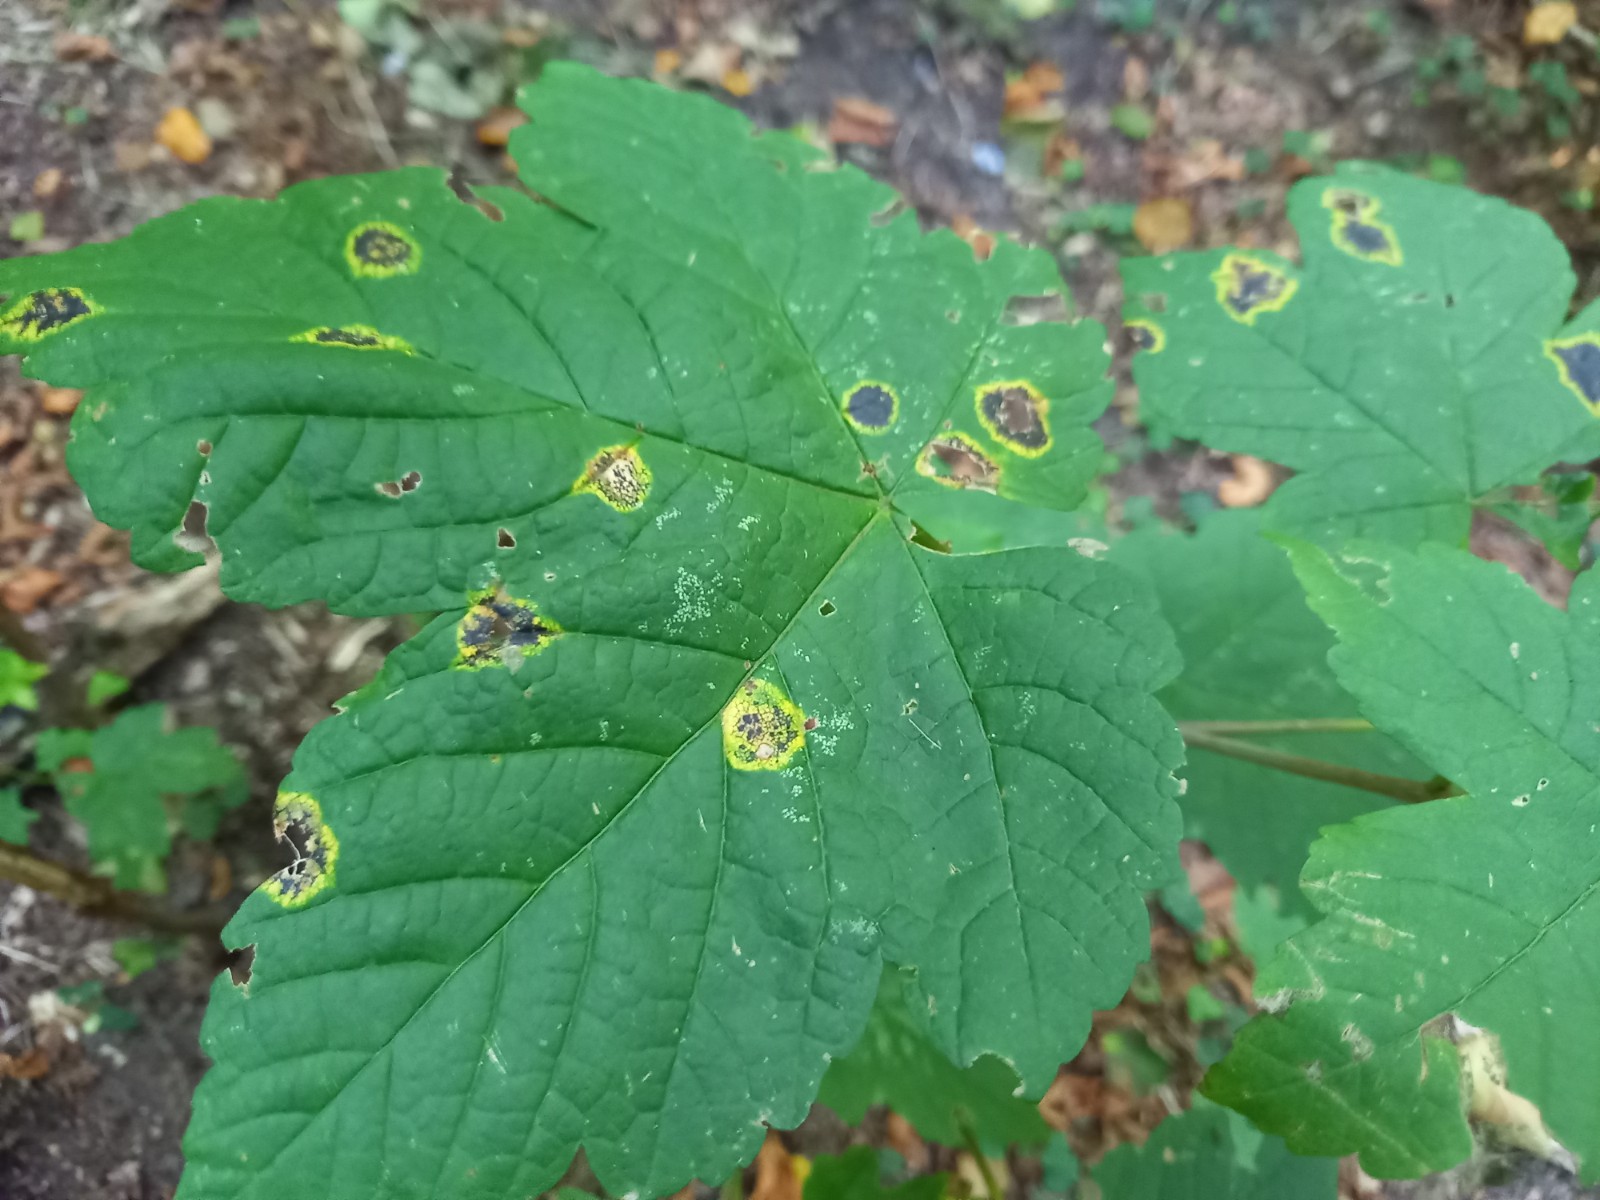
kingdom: Fungi
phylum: Ascomycota
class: Leotiomycetes
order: Rhytismatales
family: Rhytismataceae
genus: Rhytisma
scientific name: Rhytisma acerinum
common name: ahorn-rynkeplet
